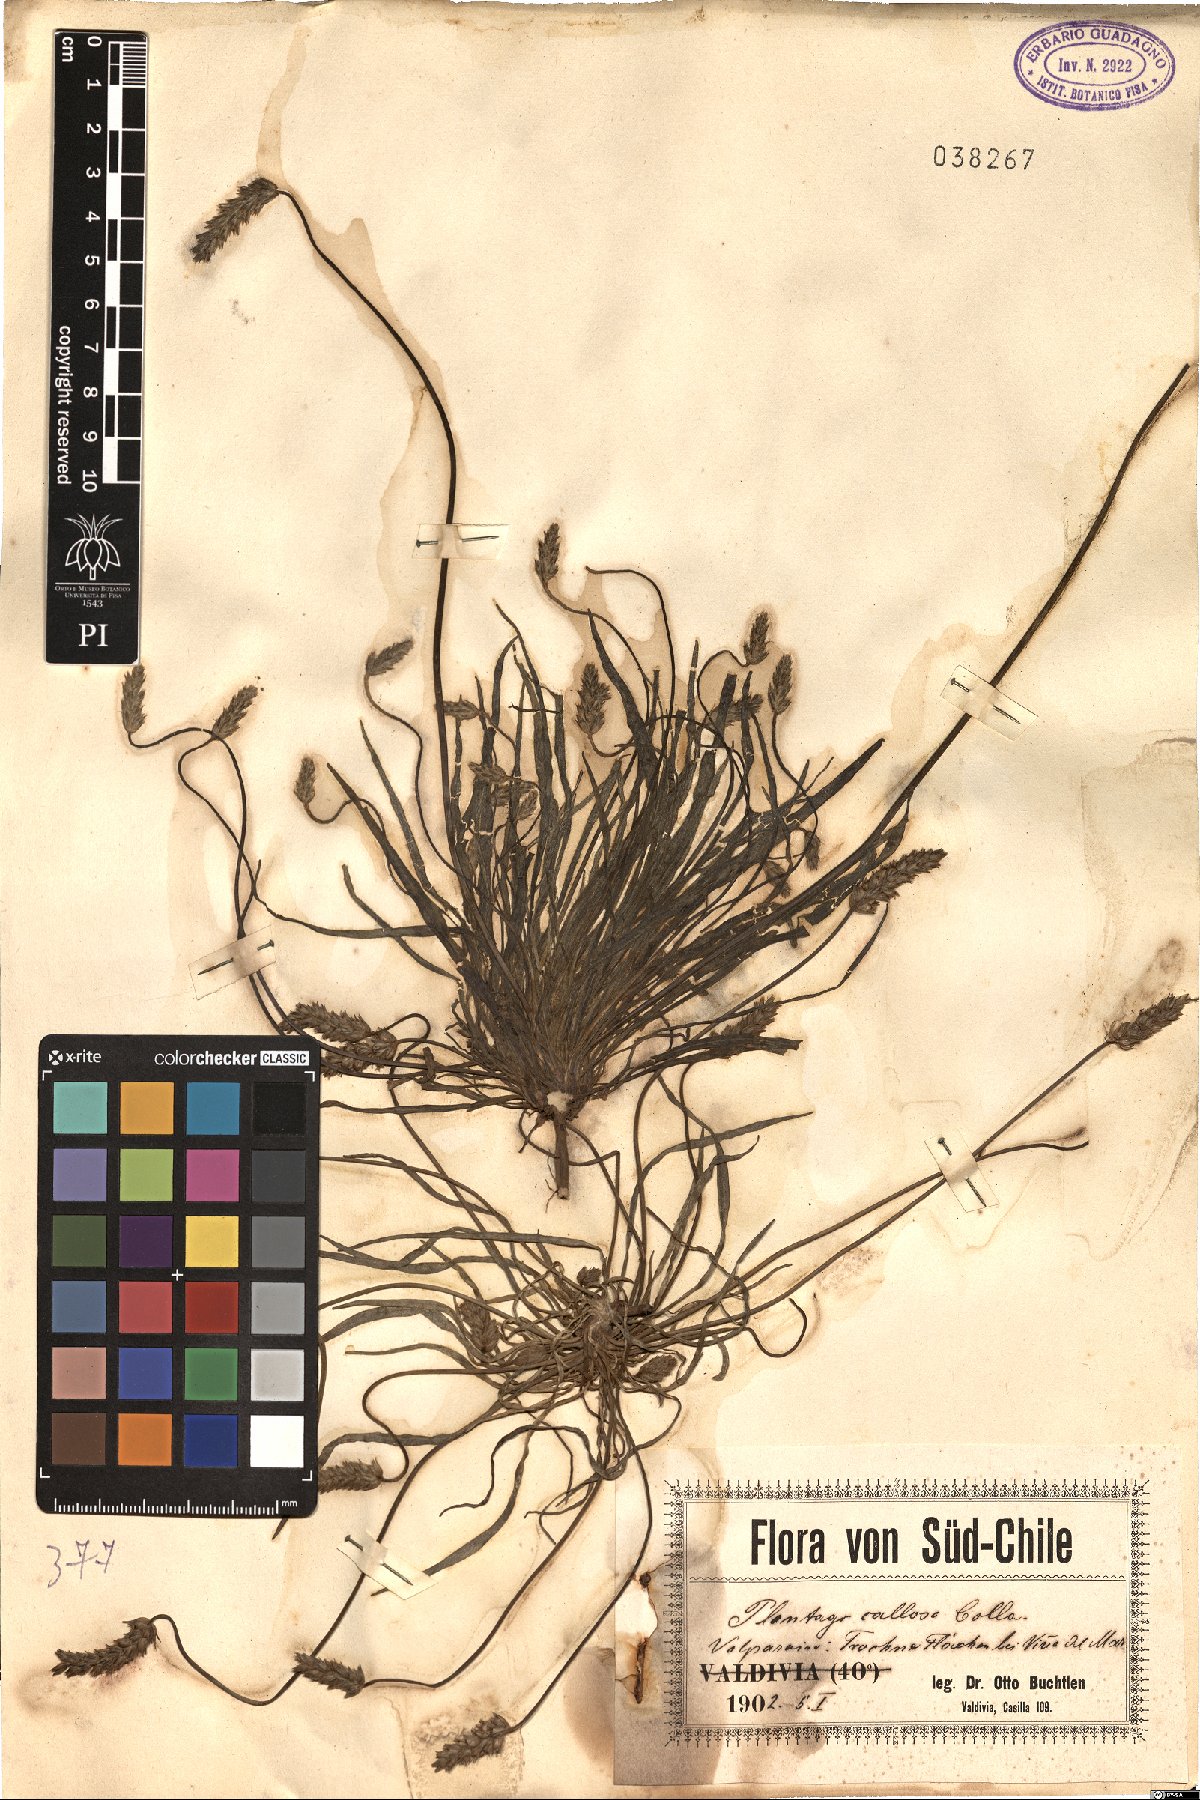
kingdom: Plantae
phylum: Tracheophyta
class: Magnoliopsida
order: Lamiales
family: Plantaginaceae
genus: Plantago
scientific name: Plantago hispidula
